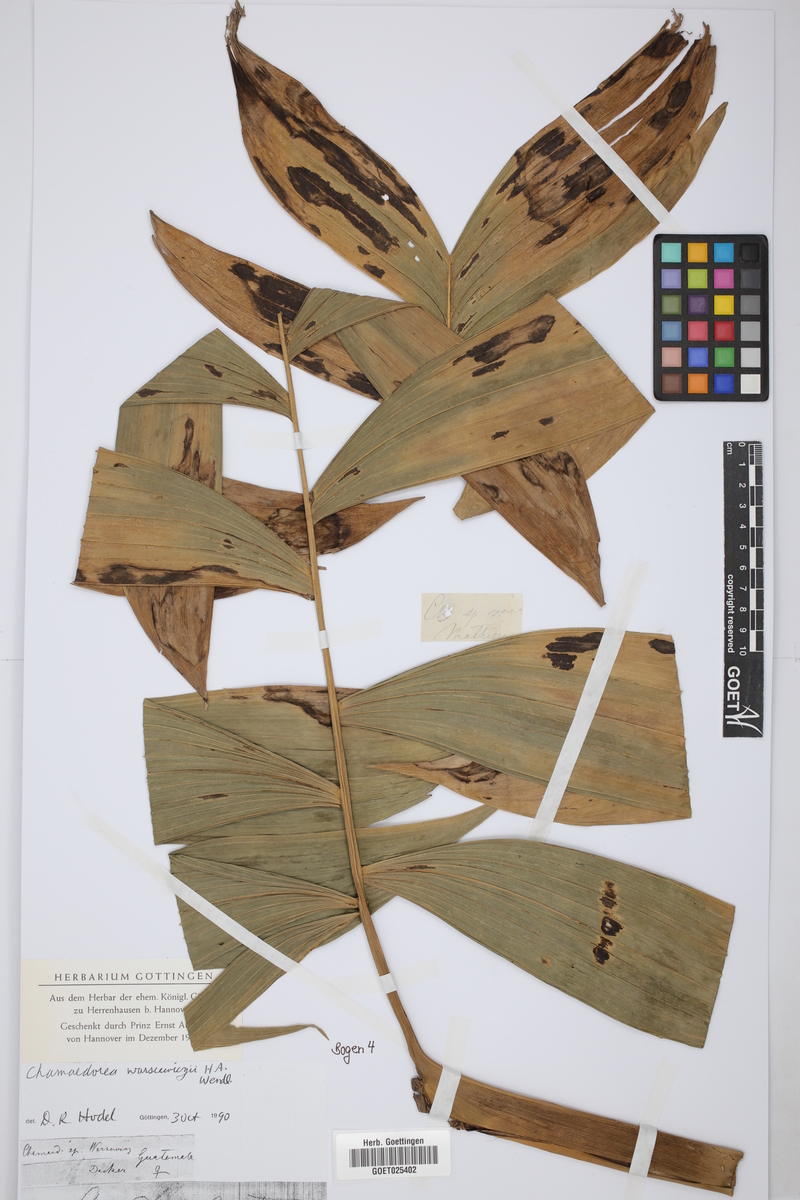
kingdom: Plantae
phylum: Tracheophyta
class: Liliopsida
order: Arecales
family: Arecaceae
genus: Chamaedorea
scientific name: Chamaedorea warscewiczii
